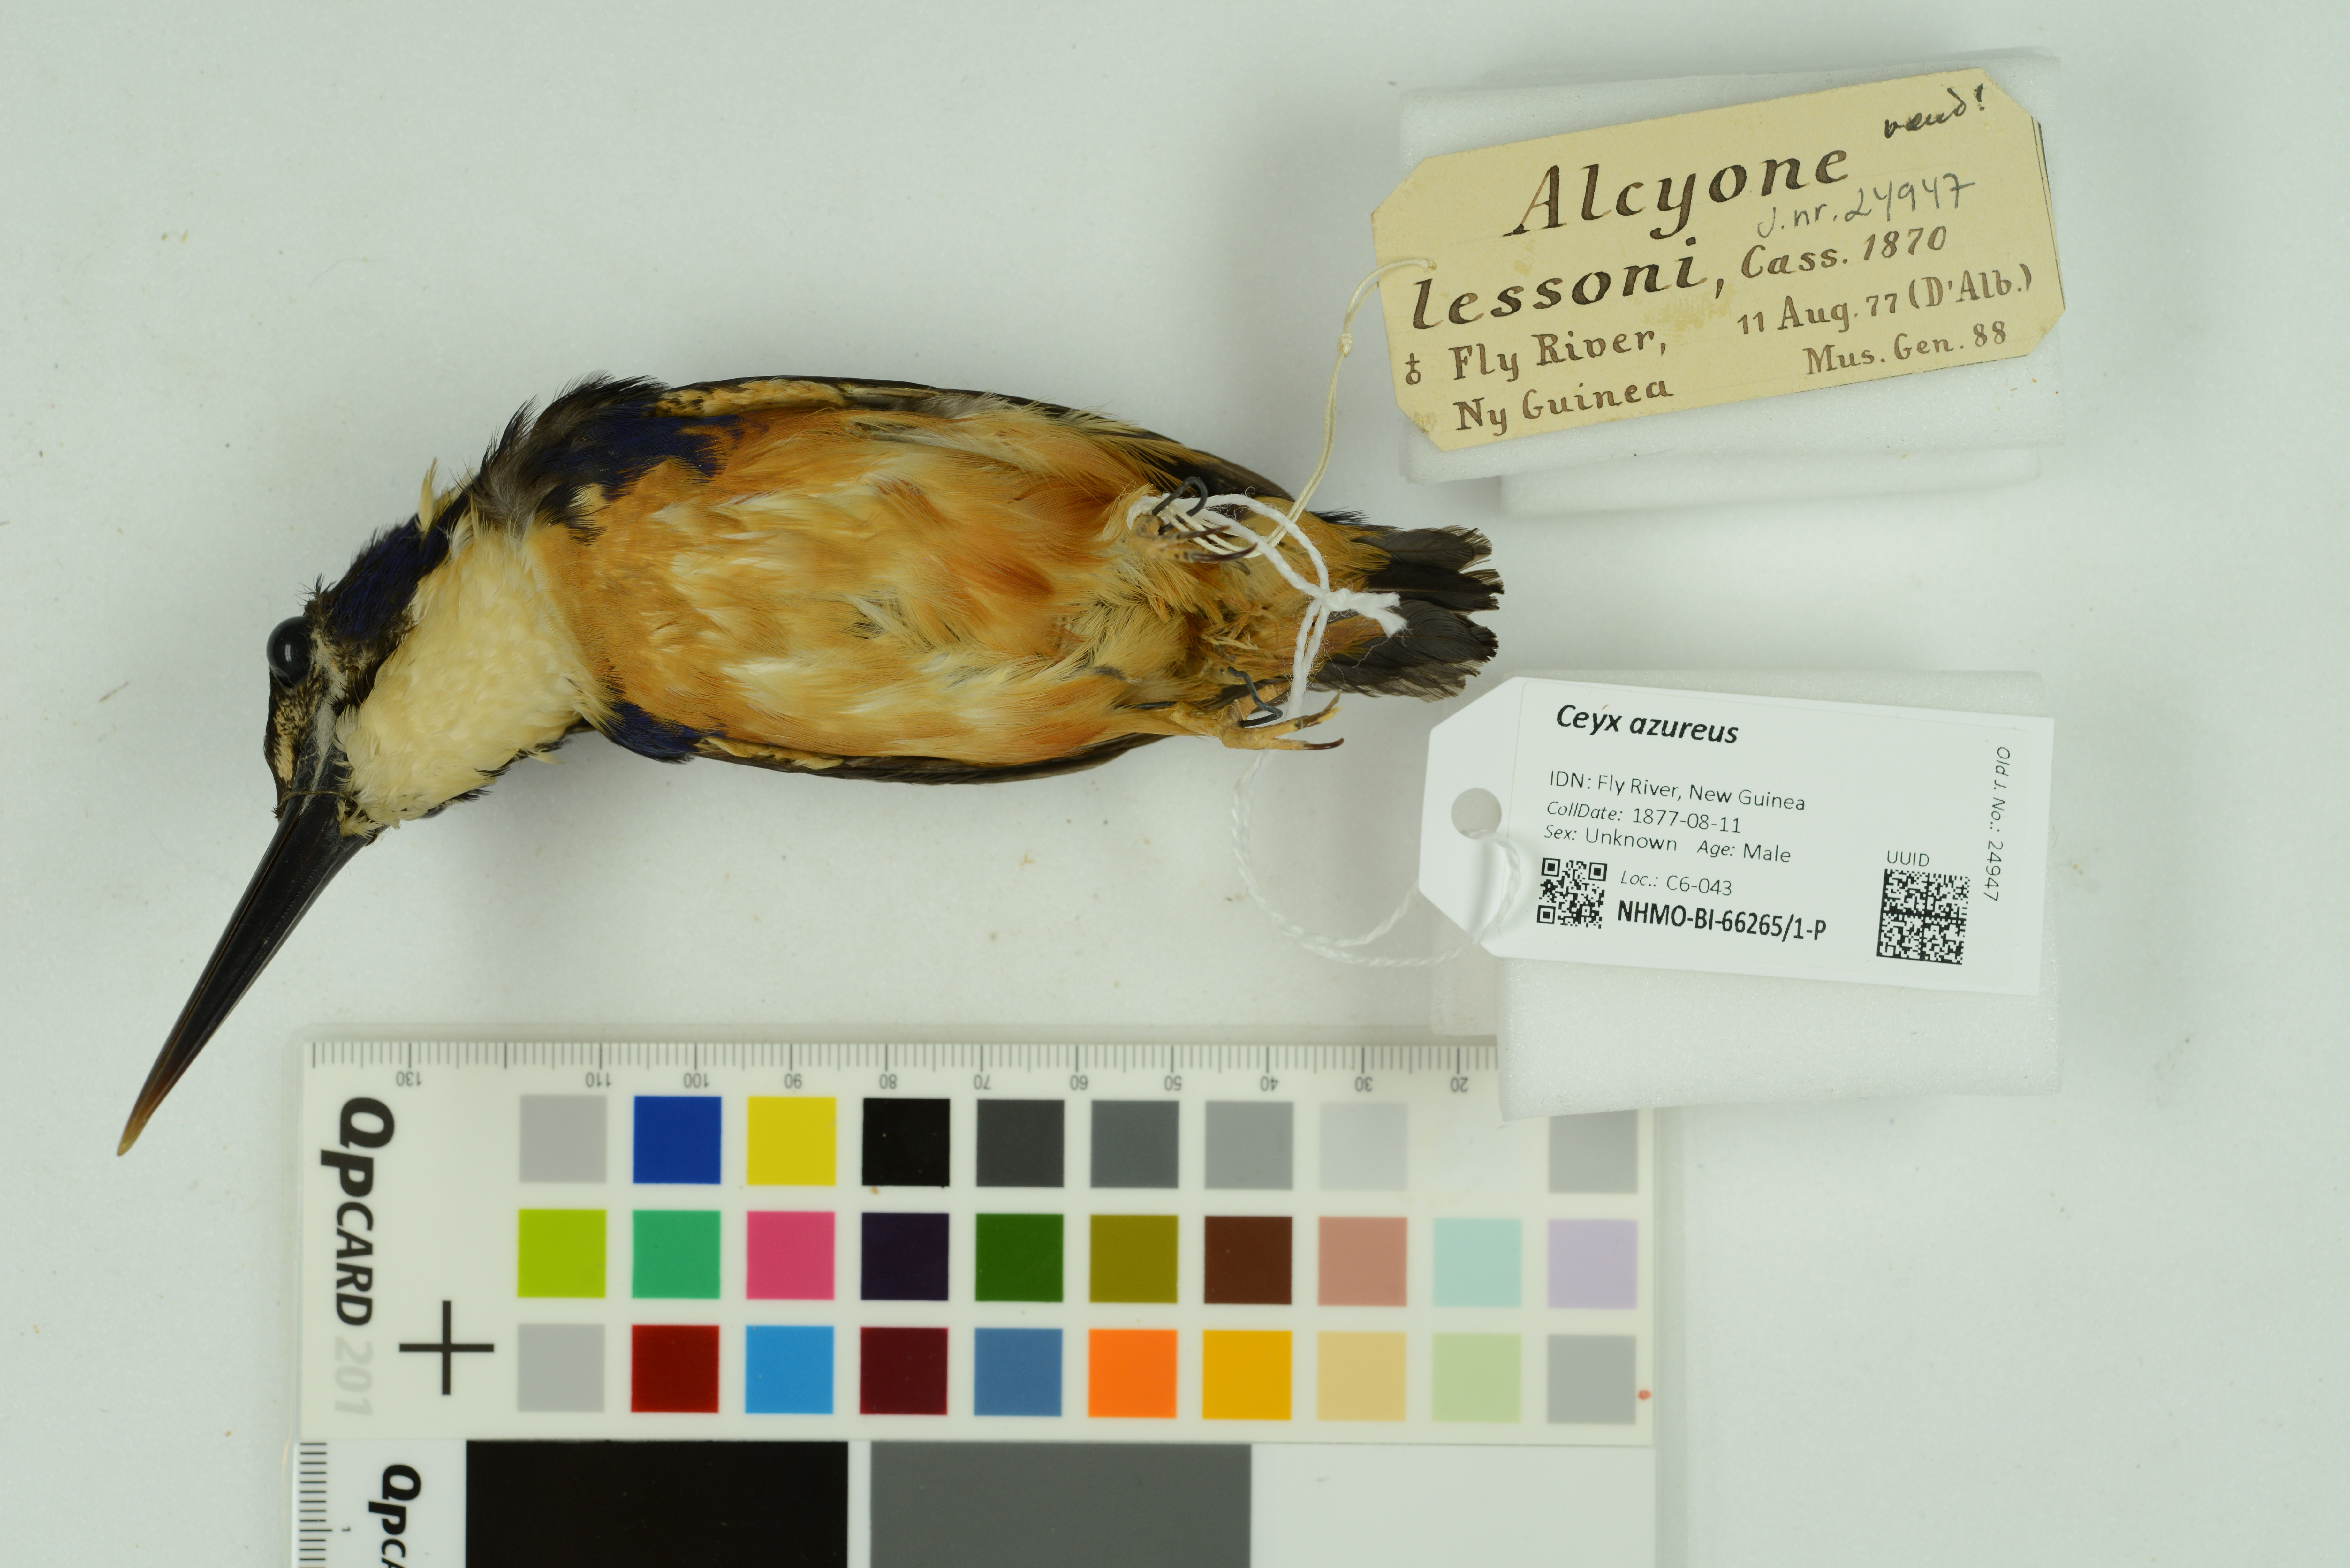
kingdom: Animalia
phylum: Chordata
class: Aves
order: Coraciiformes
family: Alcedinidae
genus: Ceyx
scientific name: Ceyx azureus
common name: Azure kingfisher
